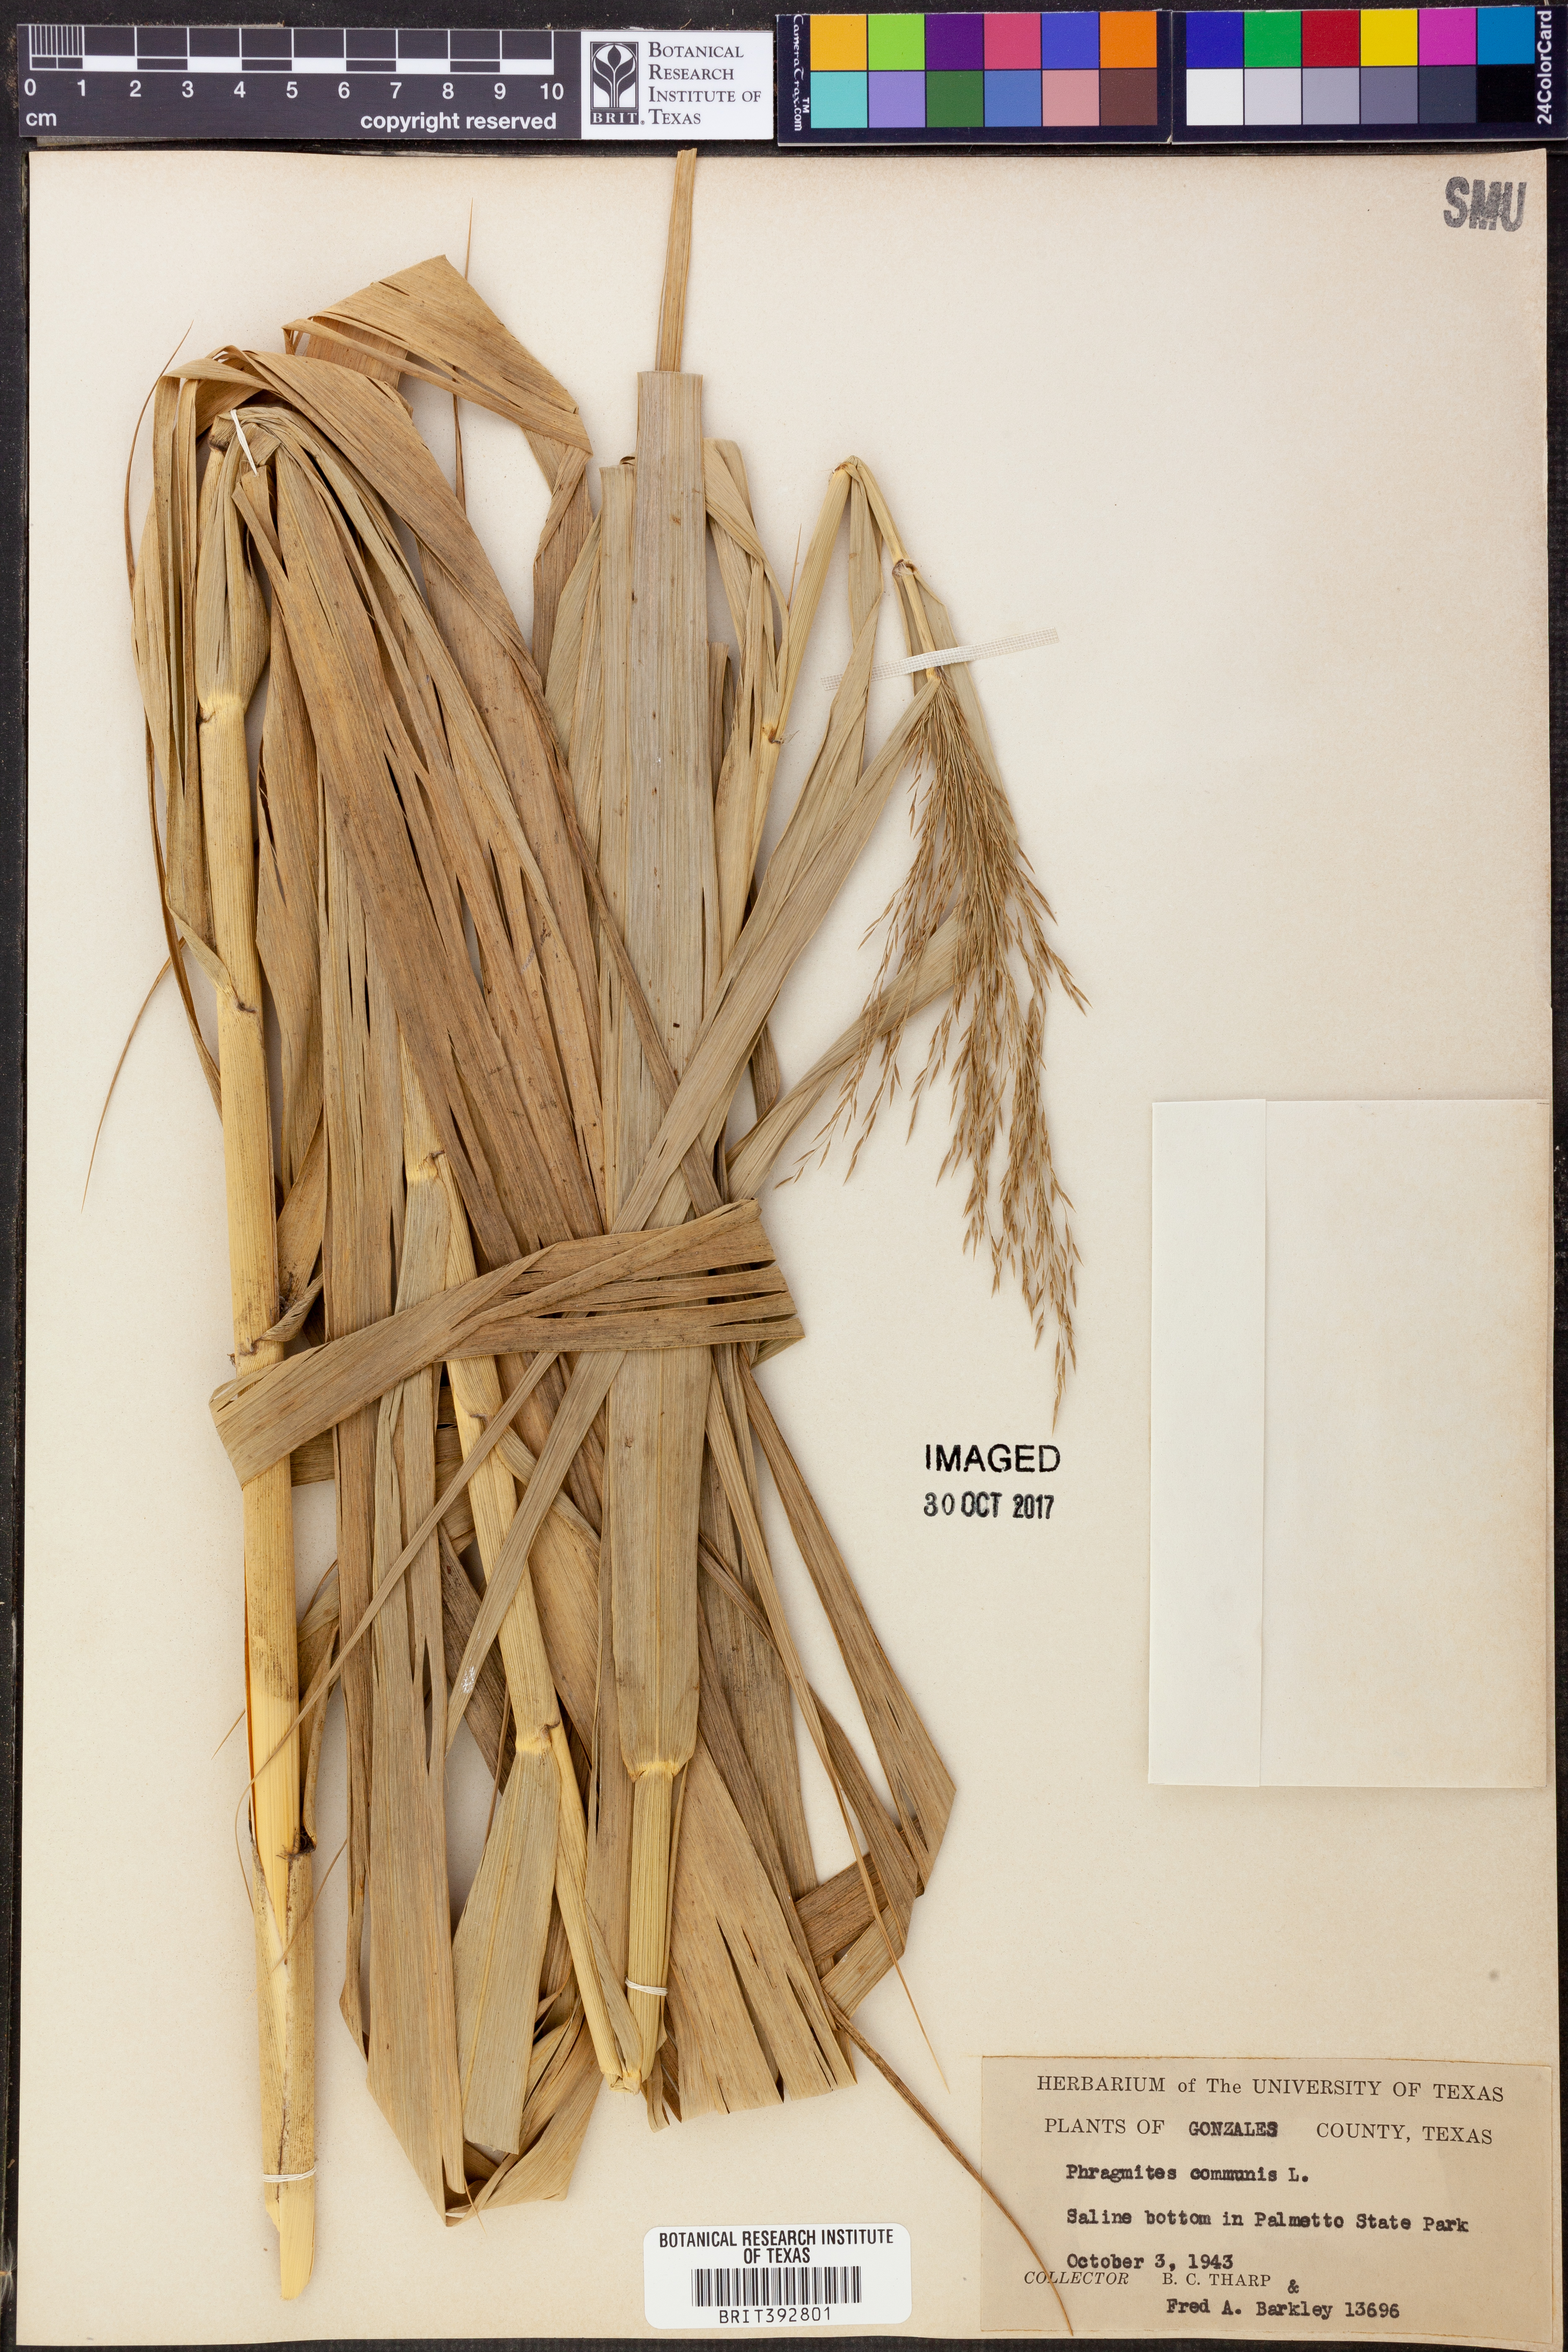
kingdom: Plantae
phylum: Tracheophyta
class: Liliopsida
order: Poales
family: Poaceae
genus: Phragmites
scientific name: Phragmites australis
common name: Common reed
